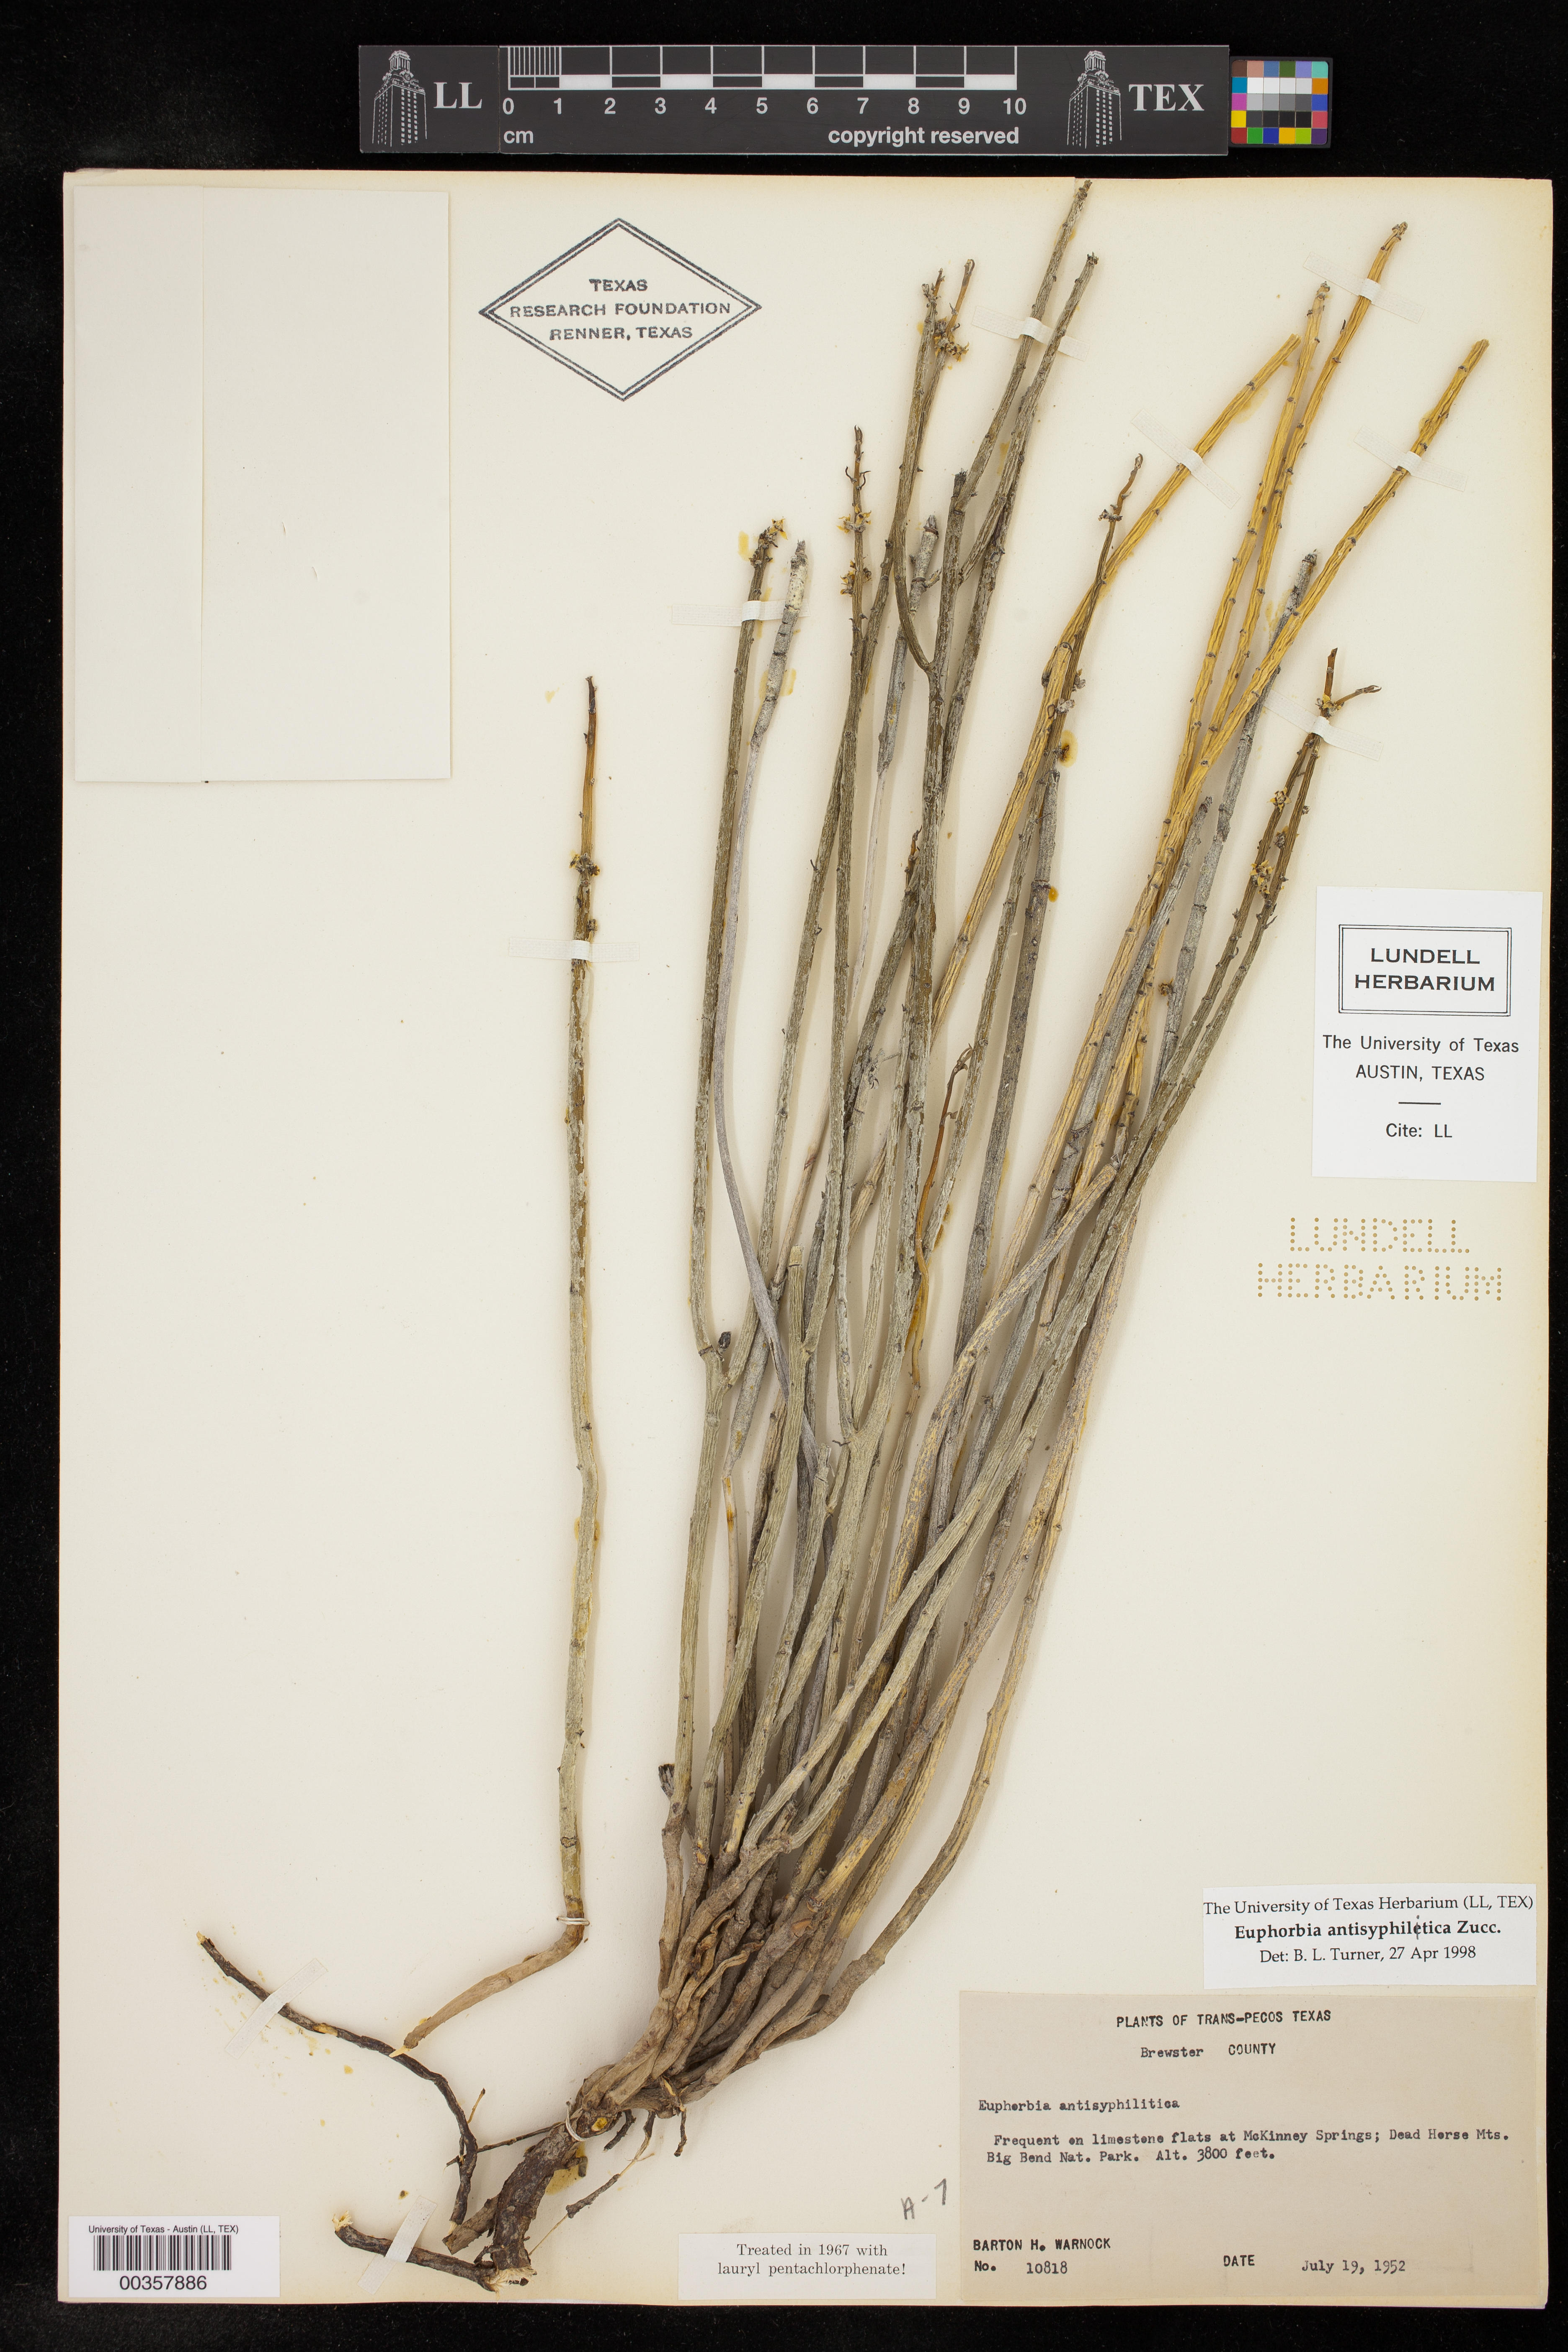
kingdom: Plantae
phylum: Tracheophyta
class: Magnoliopsida
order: Malpighiales
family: Euphorbiaceae
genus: Euphorbia
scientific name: Euphorbia antisyphilitica
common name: Candelilla
